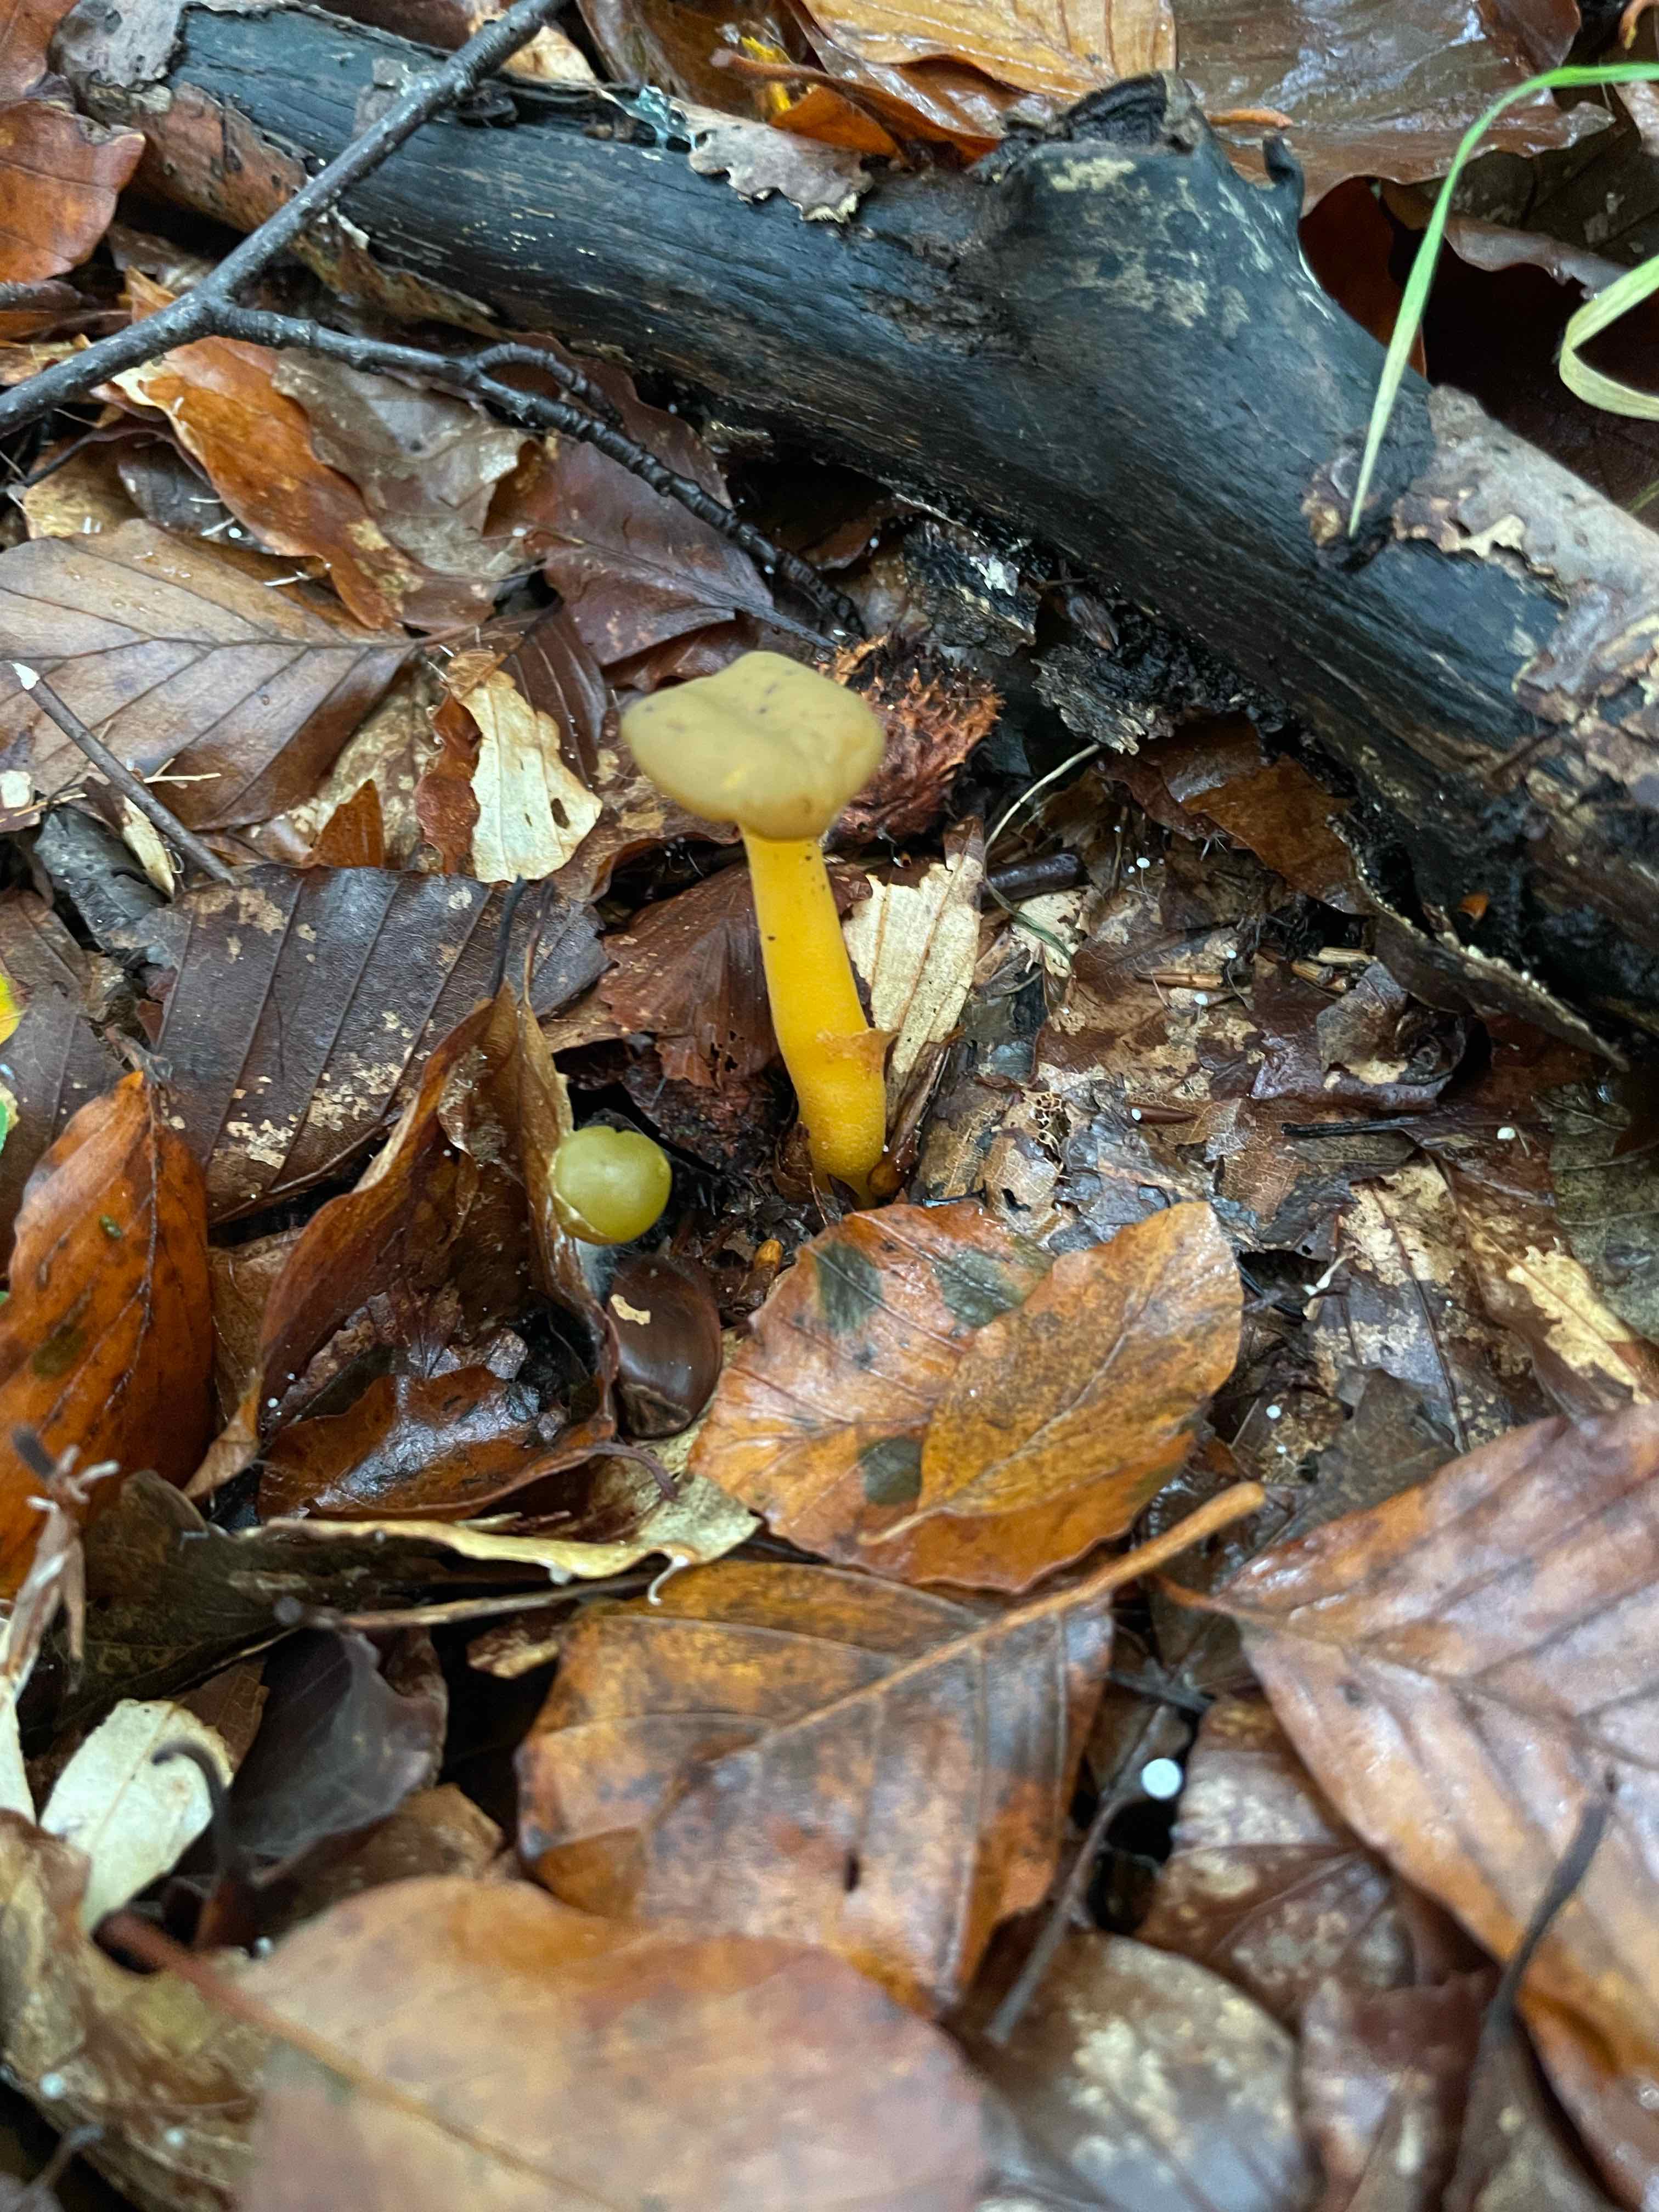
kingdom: Fungi
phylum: Ascomycota
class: Leotiomycetes
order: Leotiales
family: Leotiaceae
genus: Leotia
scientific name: Leotia lubrica
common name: ravsvamp
